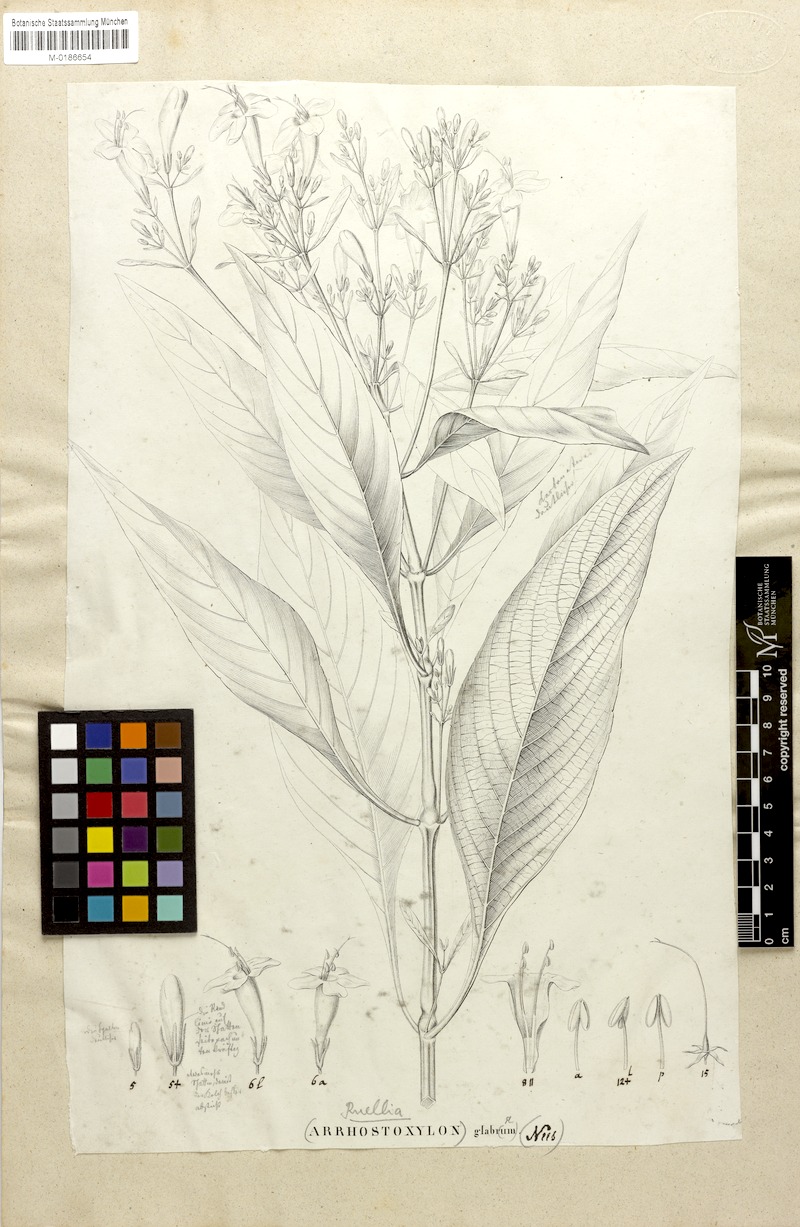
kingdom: Plantae
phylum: Tracheophyta
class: Magnoliopsida
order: Lamiales
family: Acanthaceae
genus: Ruellia
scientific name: Ruellia fulgida
